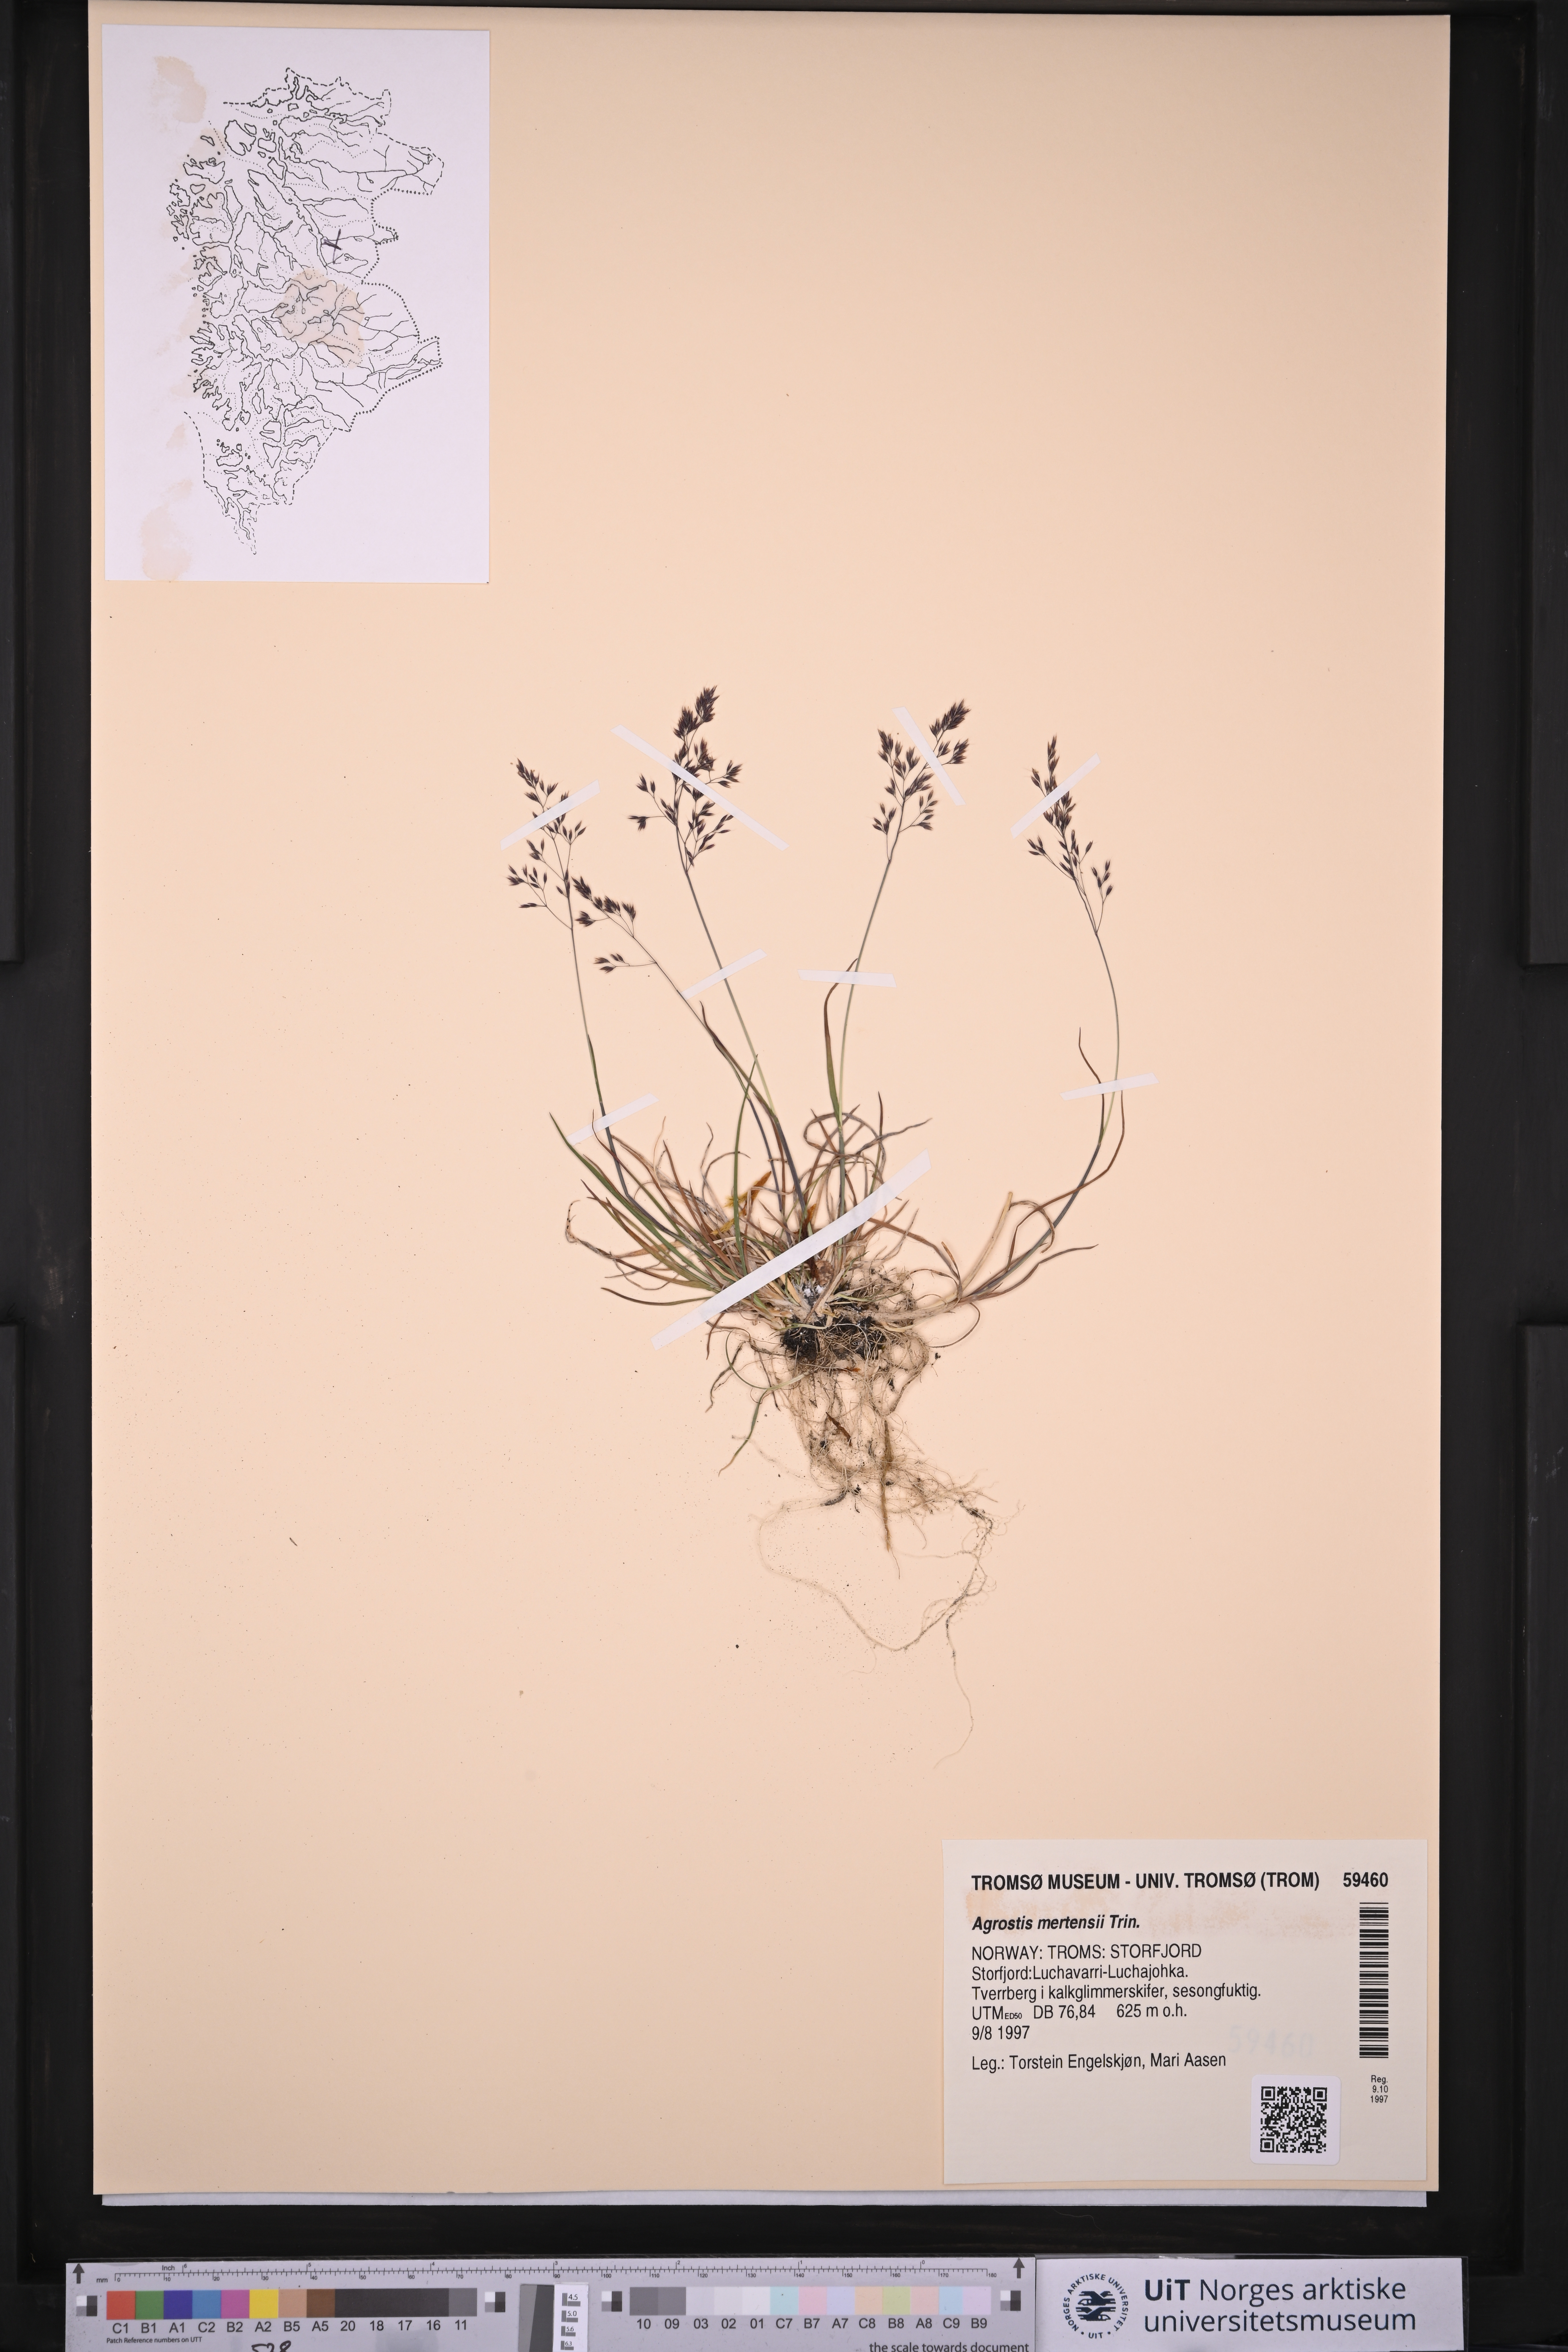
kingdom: Plantae
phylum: Tracheophyta
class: Liliopsida
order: Poales
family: Poaceae
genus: Agrostis
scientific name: Agrostis mertensii
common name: Northern bent
